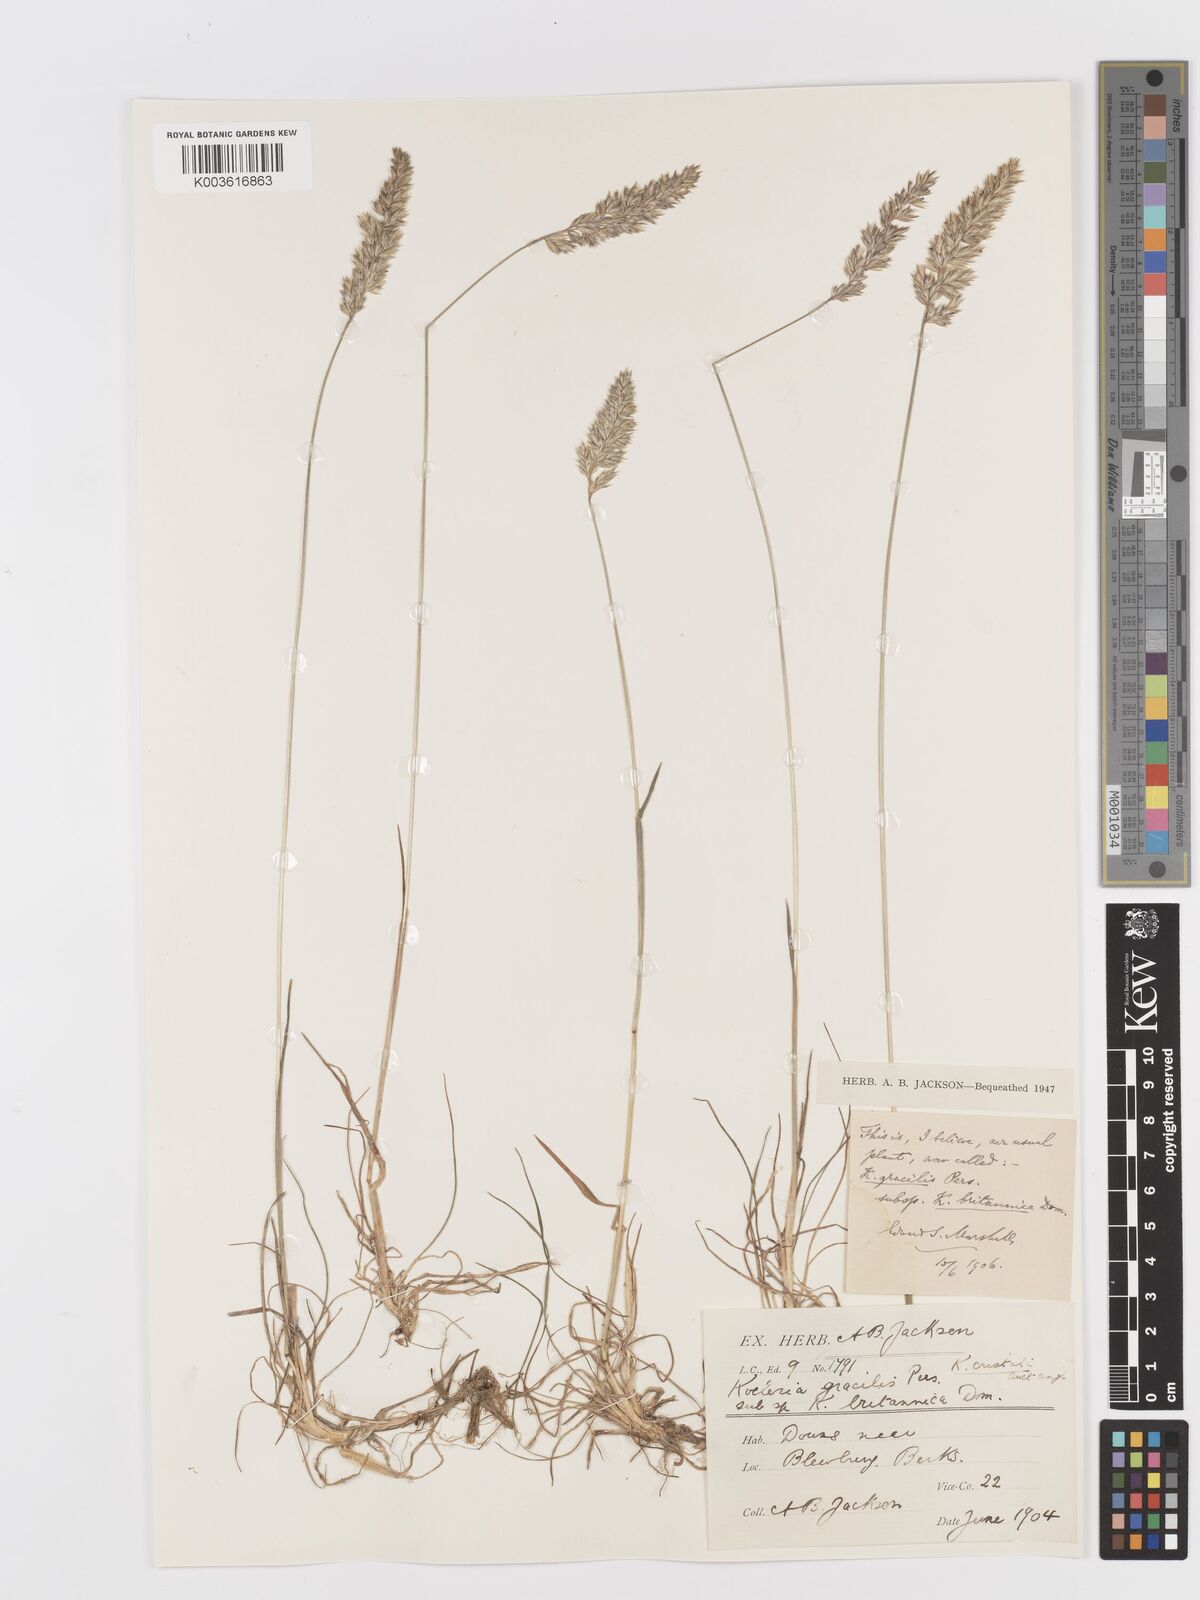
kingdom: Plantae
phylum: Tracheophyta
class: Liliopsida
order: Poales
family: Poaceae
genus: Koeleria
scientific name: Koeleria macrantha
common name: Crested hair-grass
